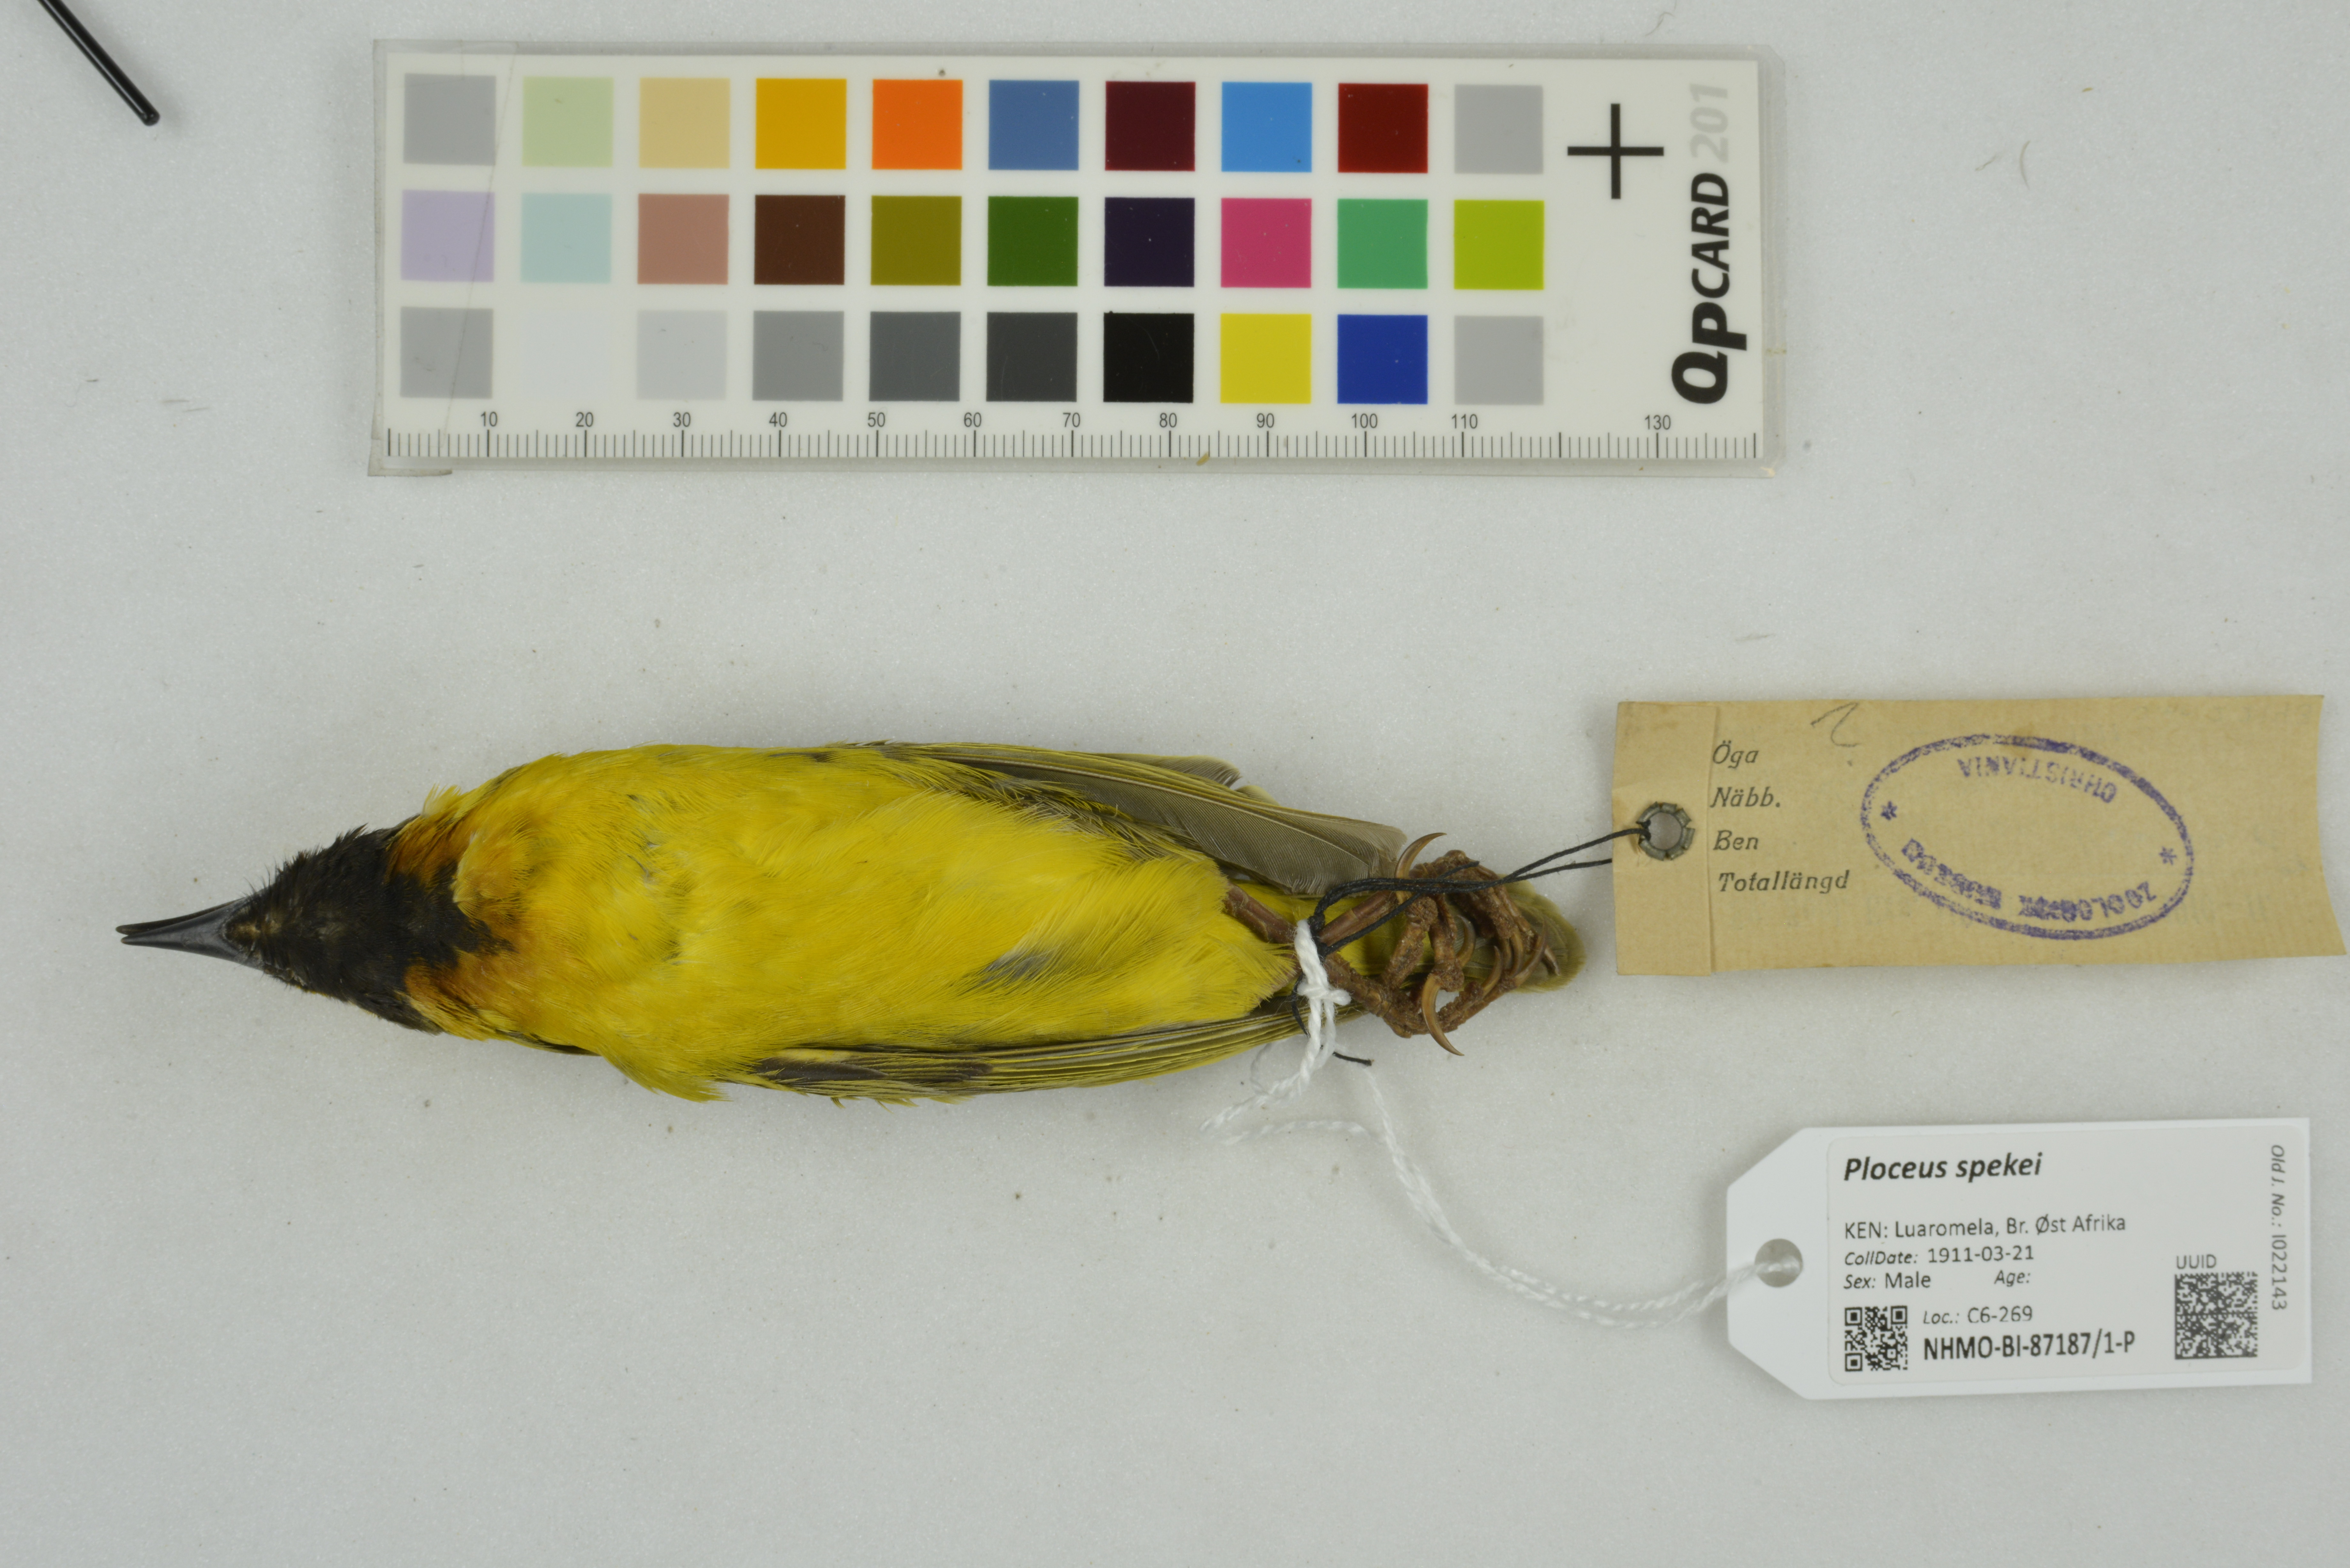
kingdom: Animalia
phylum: Chordata
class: Aves
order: Passeriformes
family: Ploceidae
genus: Ploceus
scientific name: Ploceus spekei
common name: Speke's weaver
